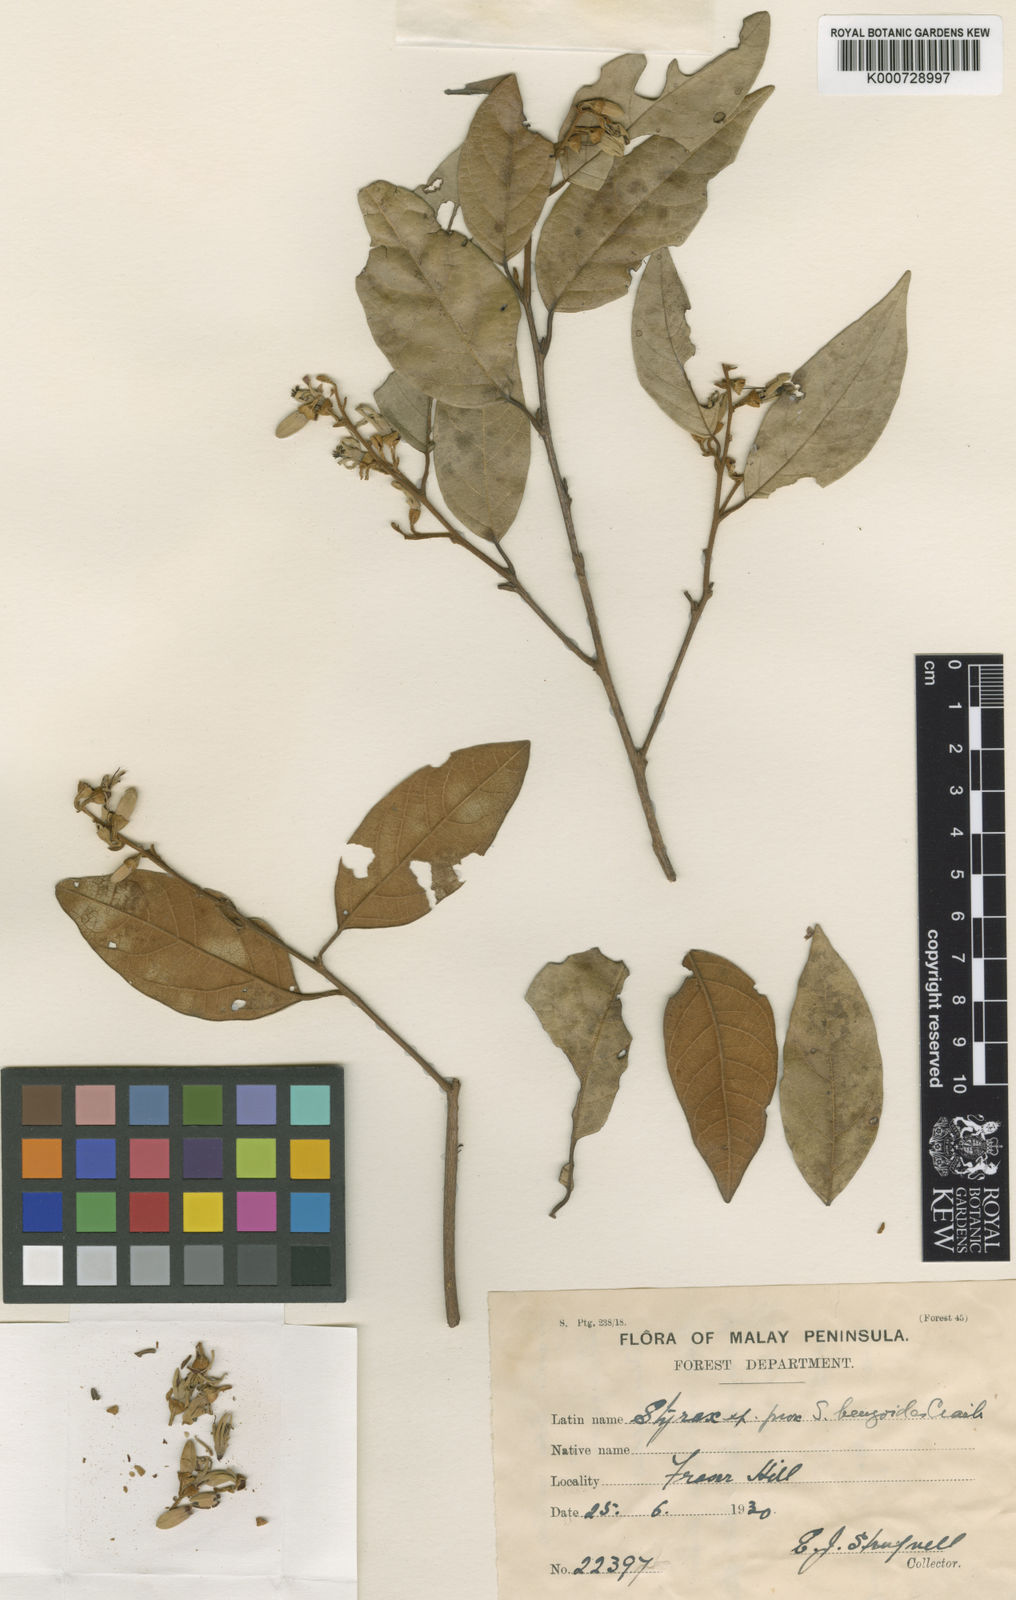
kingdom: Plantae
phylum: Tracheophyta
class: Magnoliopsida
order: Ericales
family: Styracaceae
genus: Styrax
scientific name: Styrax
